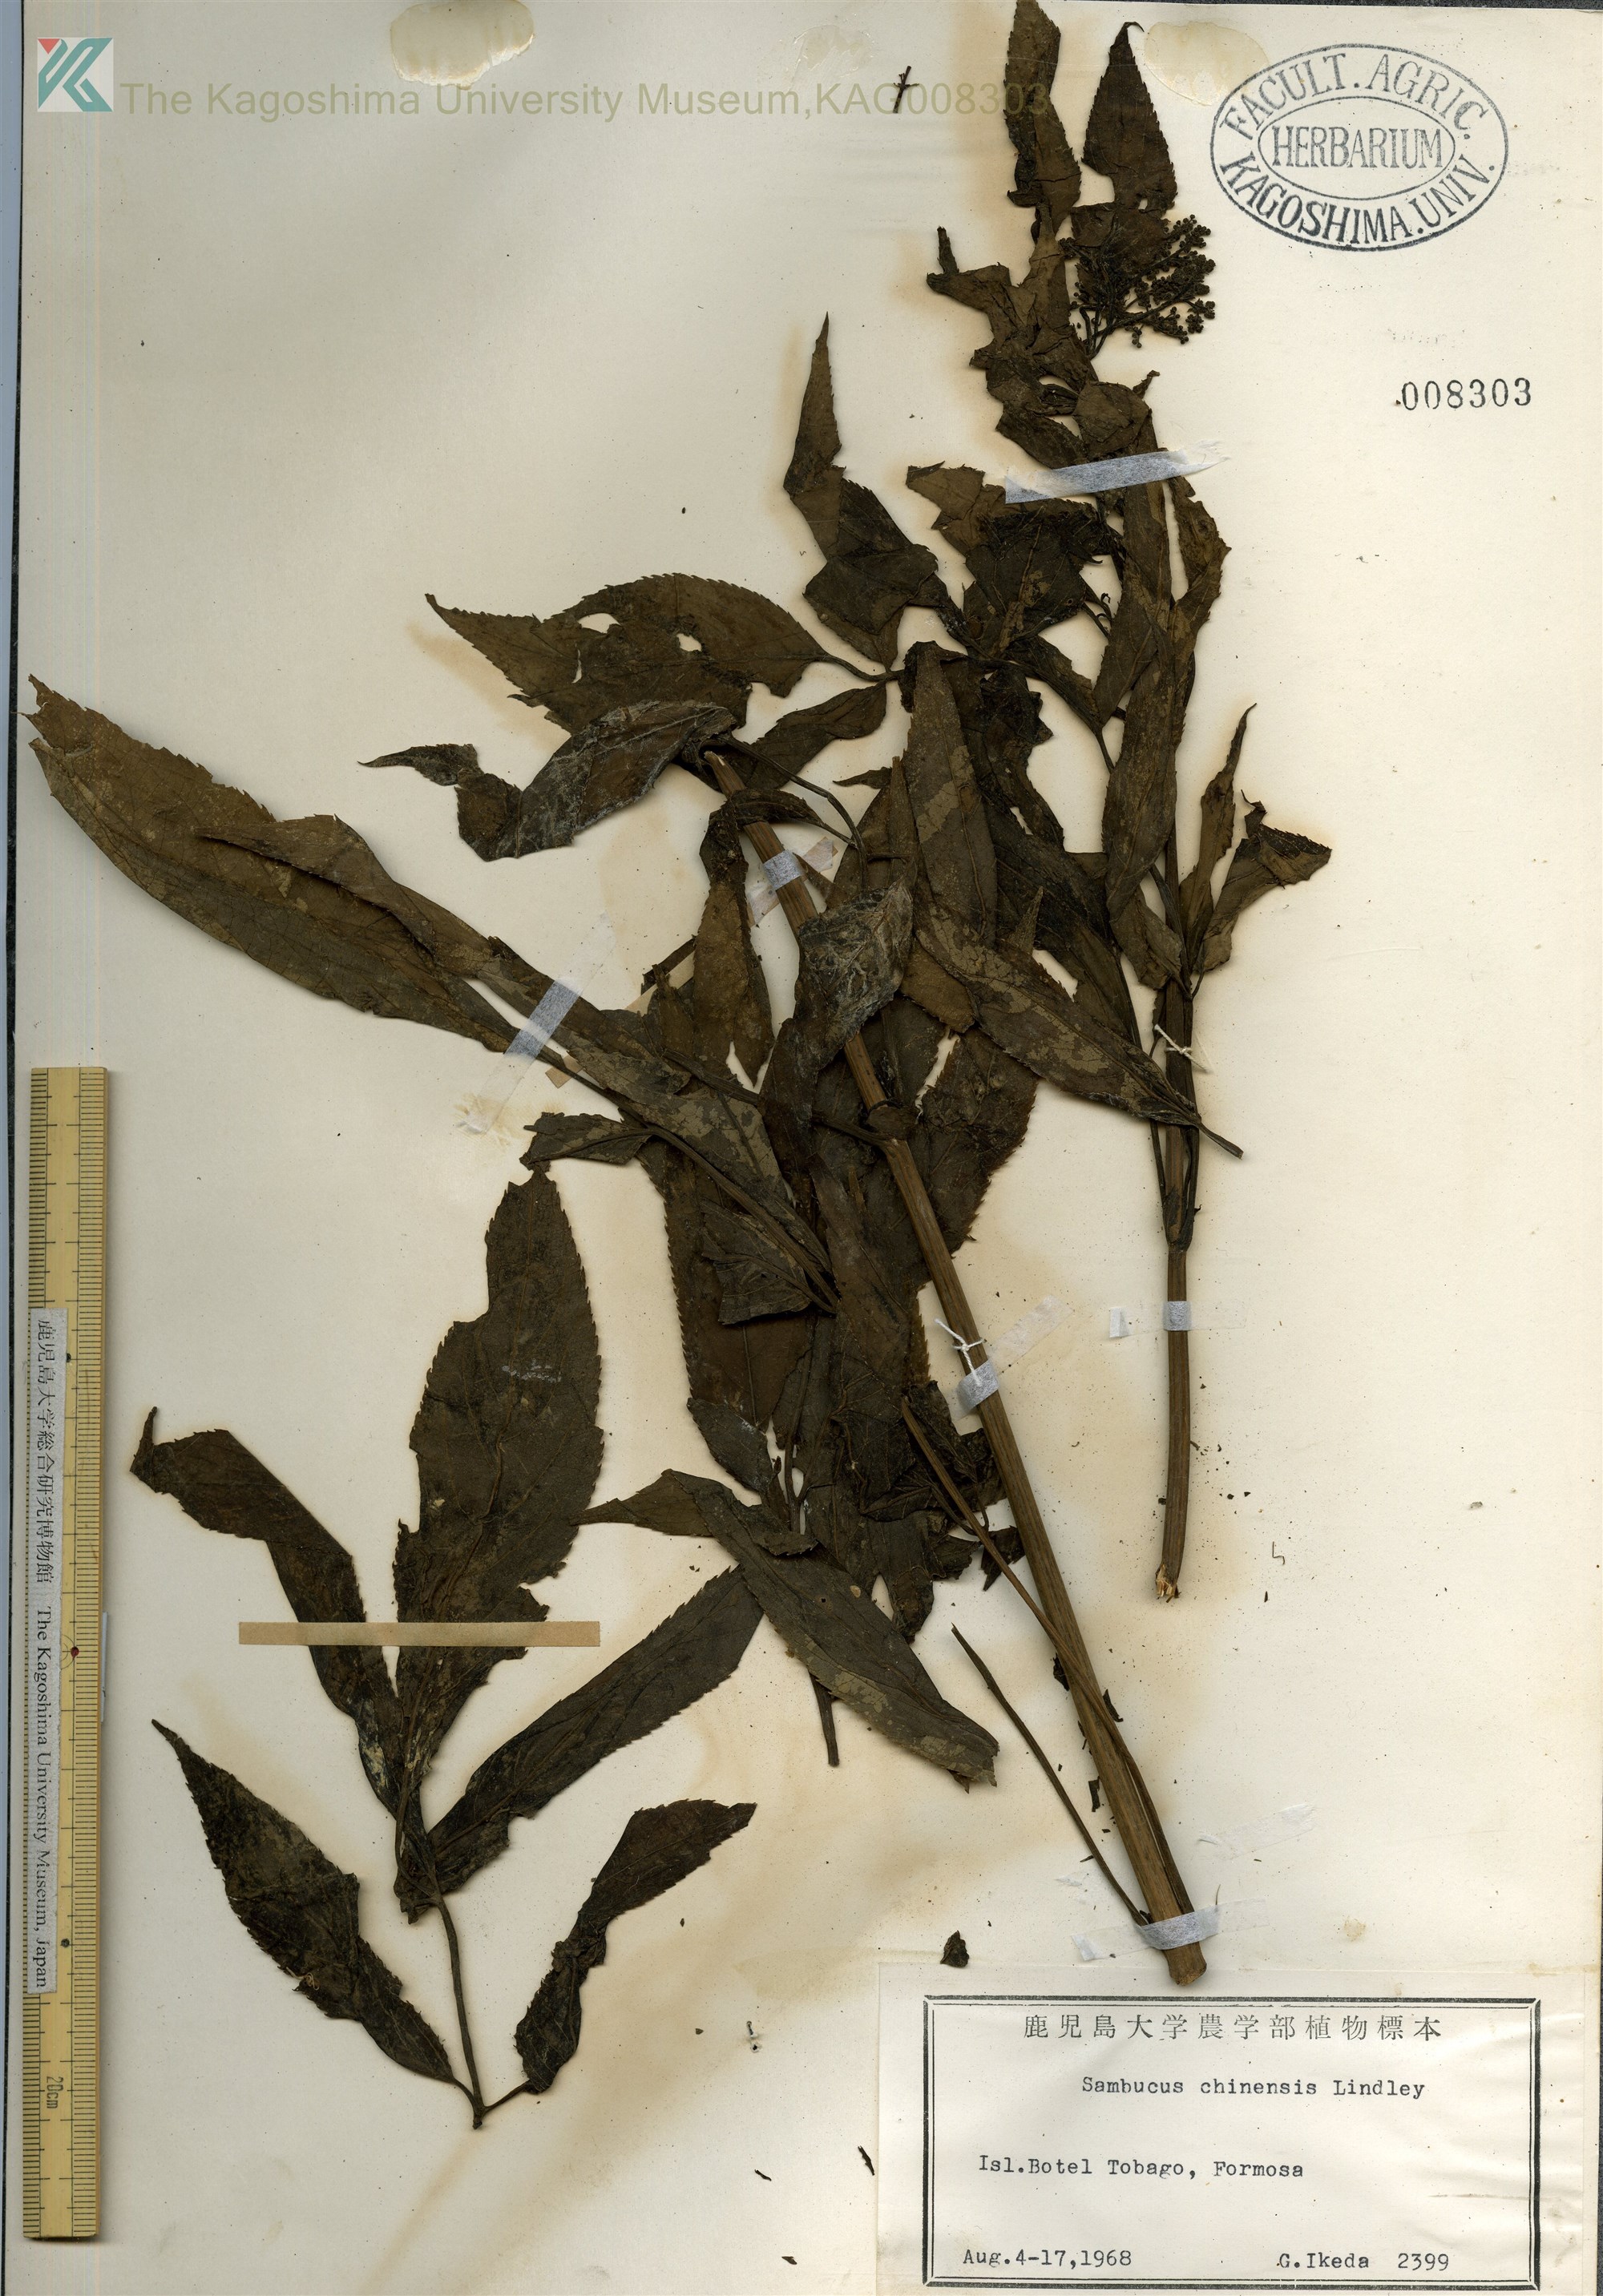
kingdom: Plantae
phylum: Tracheophyta
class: Magnoliopsida
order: Dipsacales
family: Viburnaceae
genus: Sambucus
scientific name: Sambucus javanica
